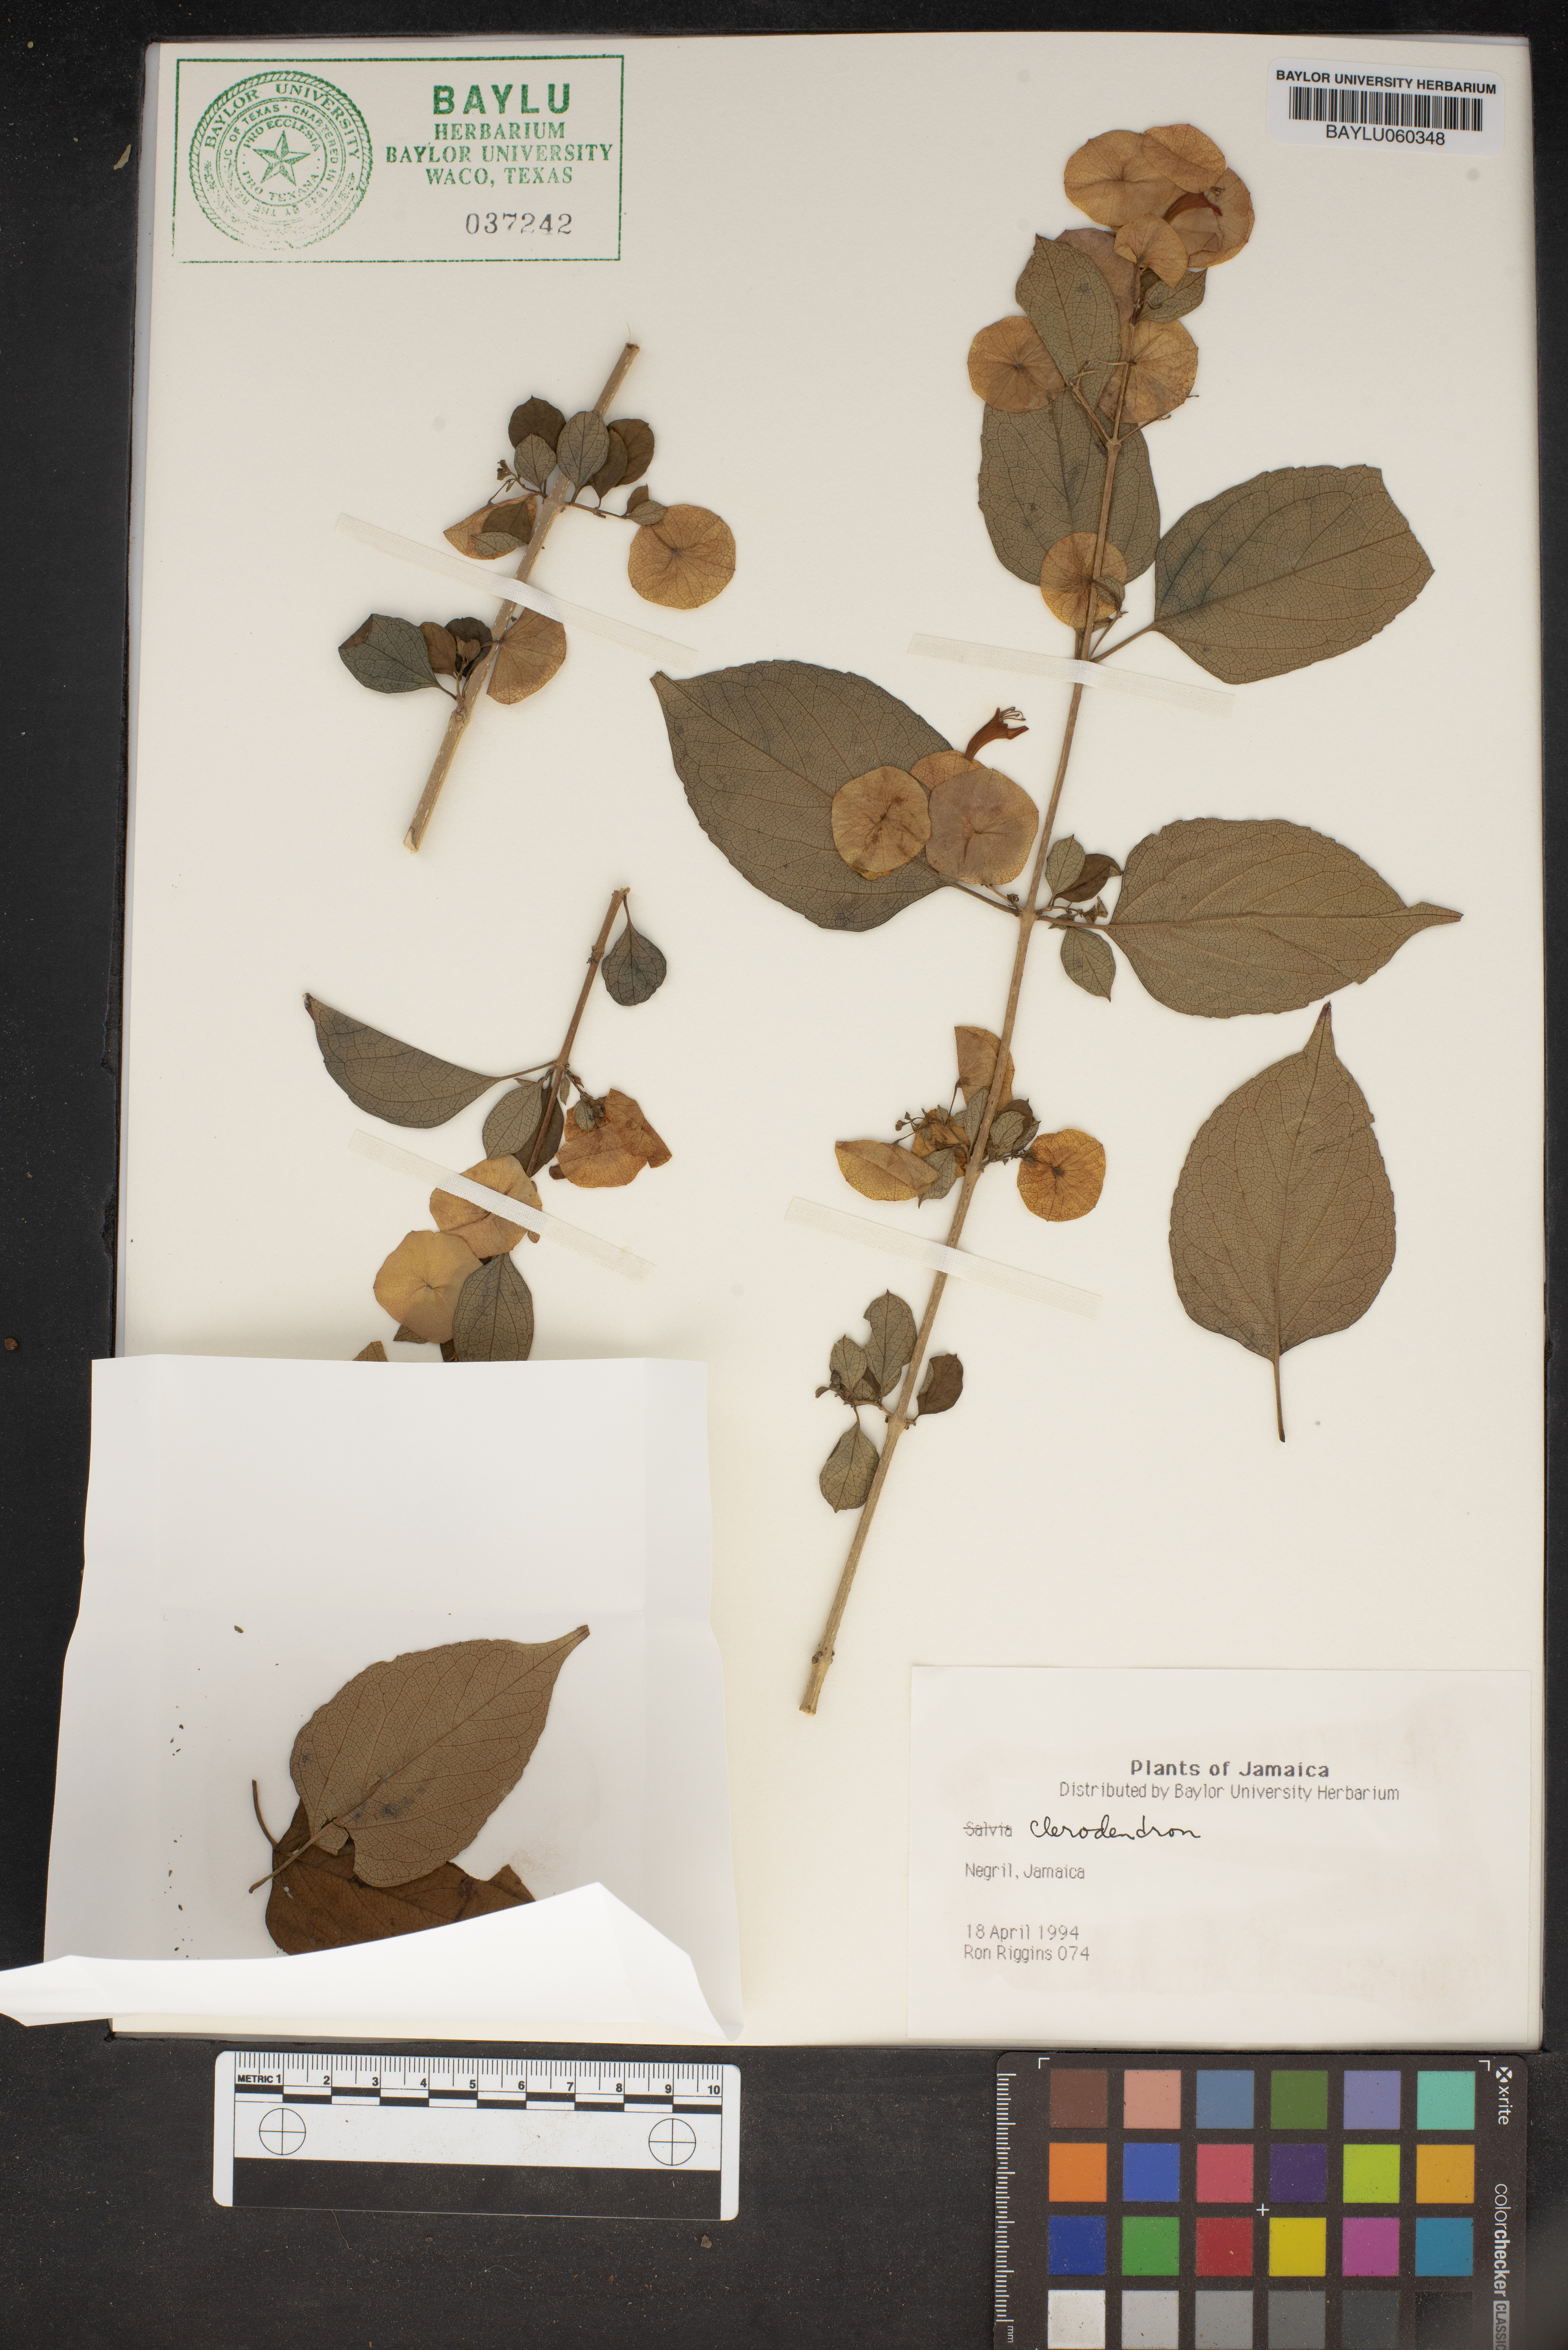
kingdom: Plantae
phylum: Tracheophyta
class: Magnoliopsida
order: Lamiales
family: Lamiaceae
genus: Clerodendrum
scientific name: Clerodendrum
